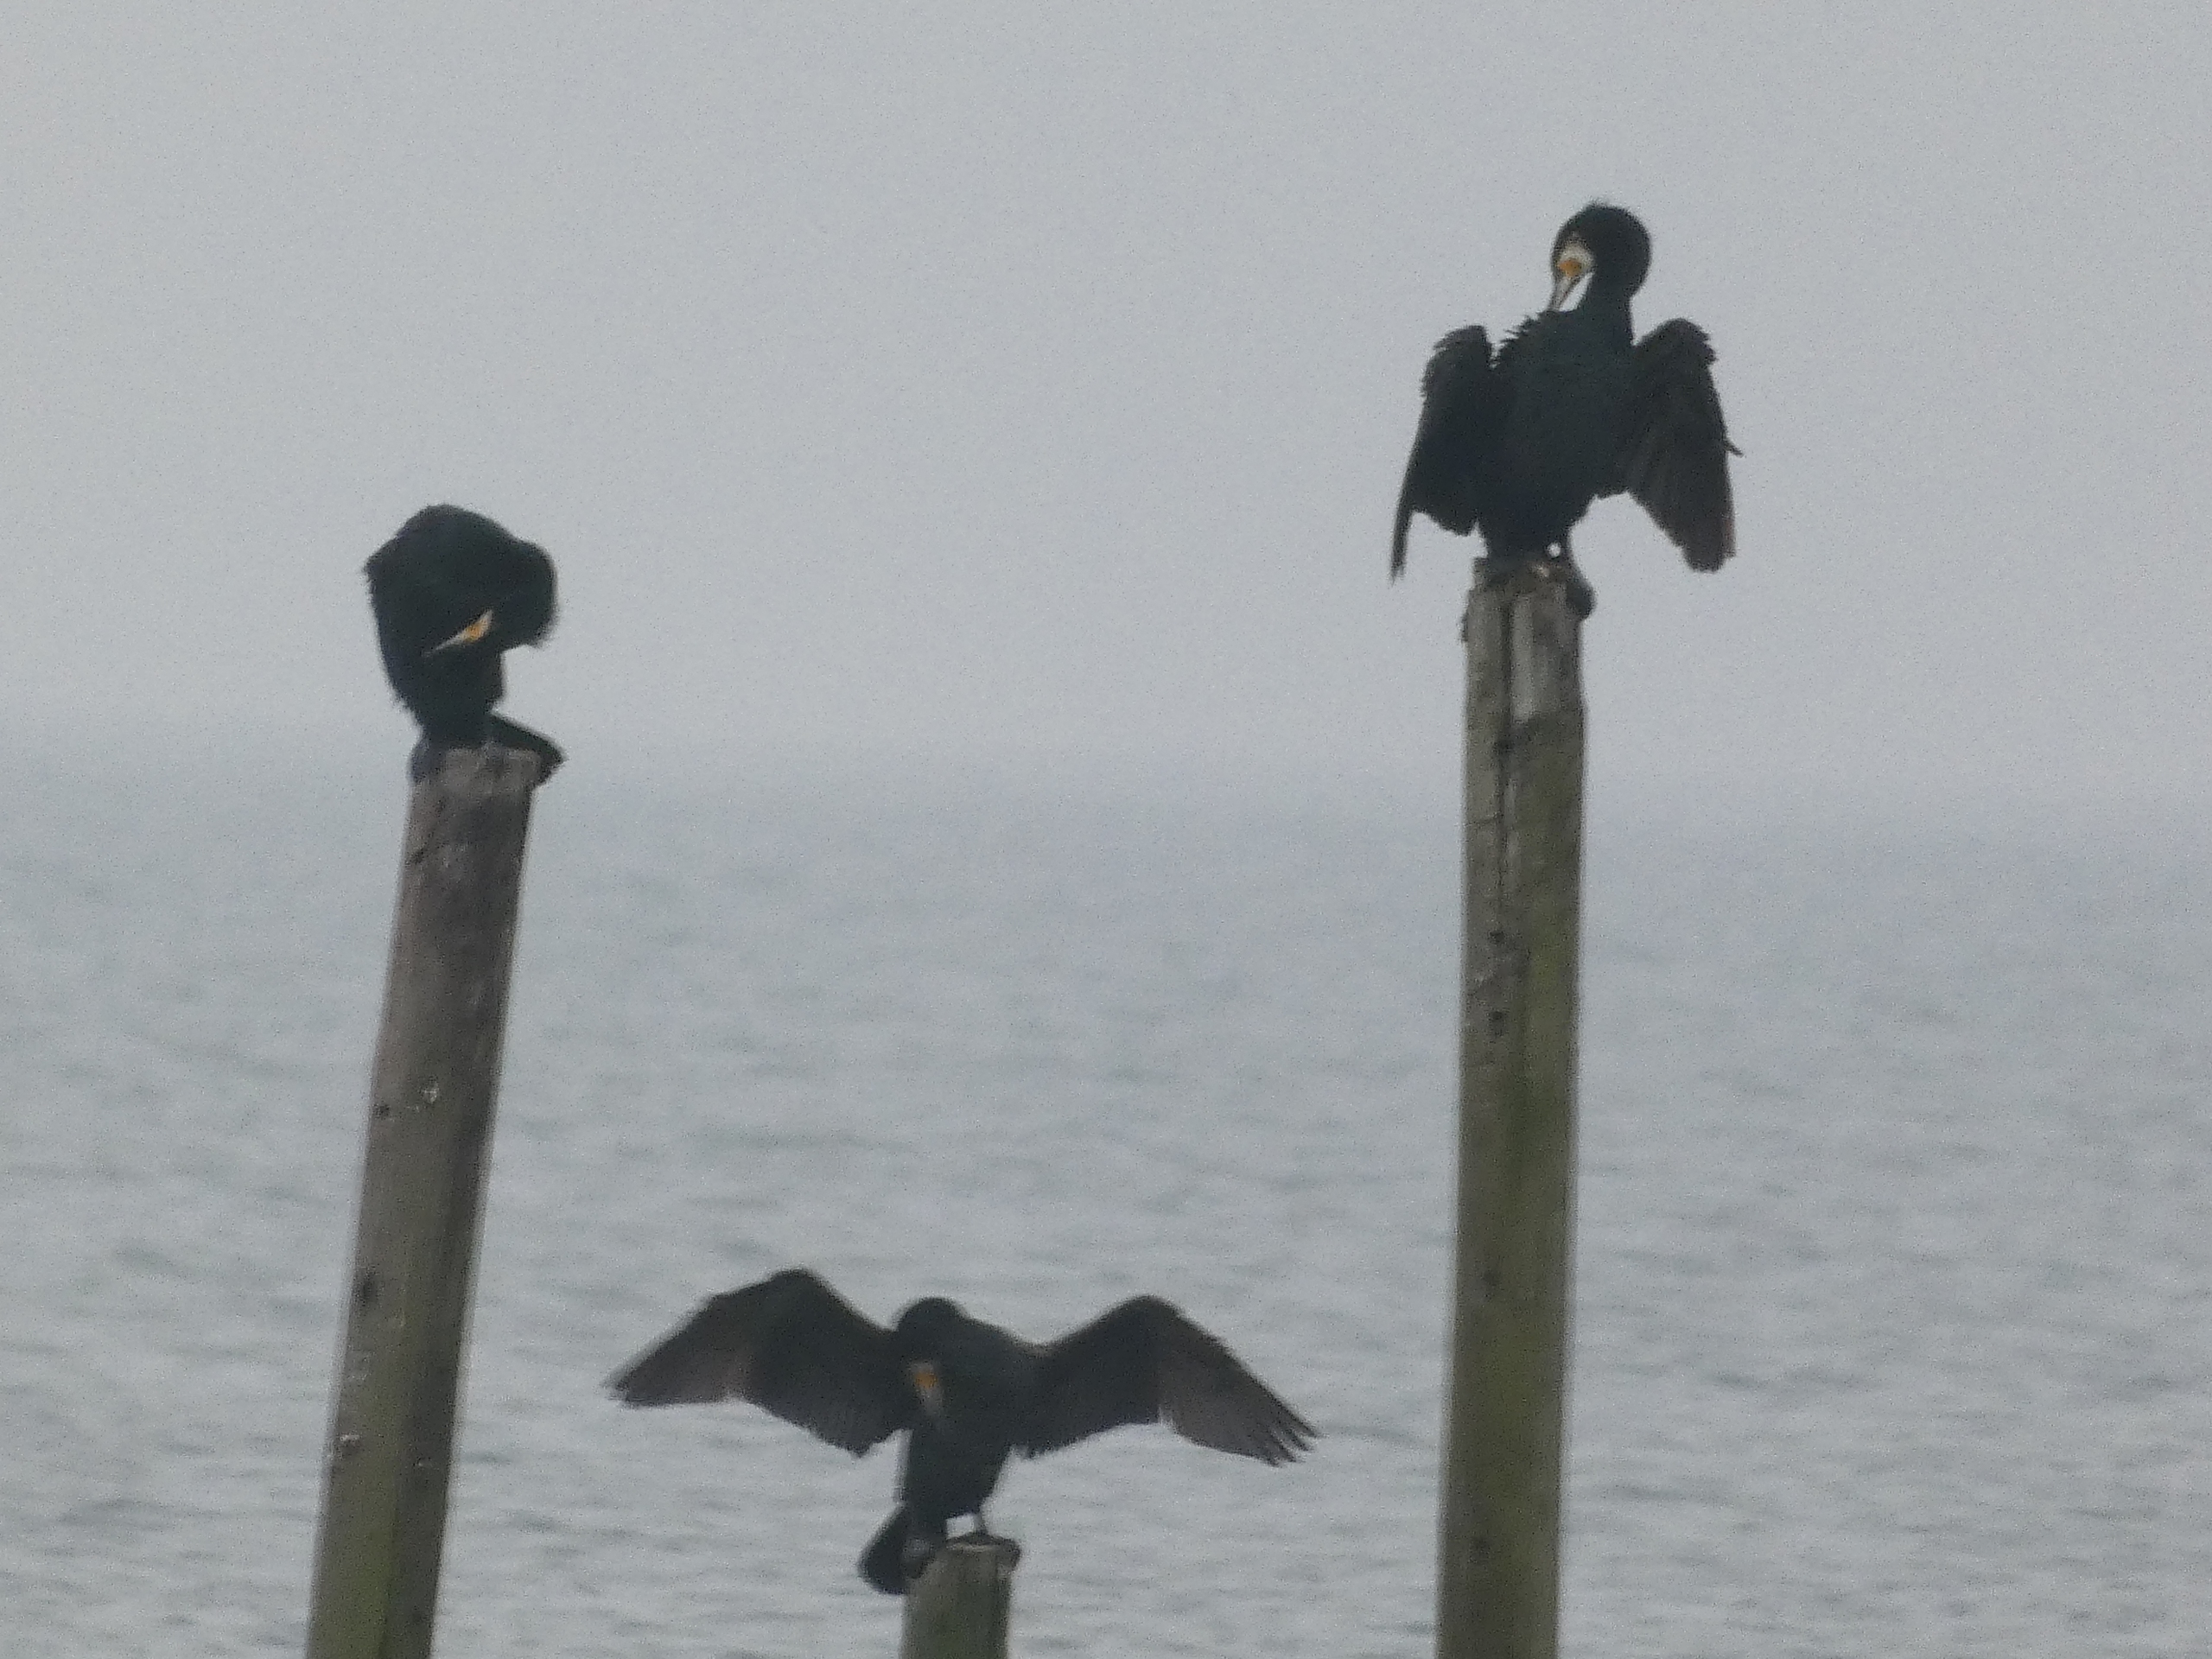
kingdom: Animalia
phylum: Chordata
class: Aves
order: Suliformes
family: Phalacrocoracidae
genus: Phalacrocorax
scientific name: Phalacrocorax carbo
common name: Skarv
